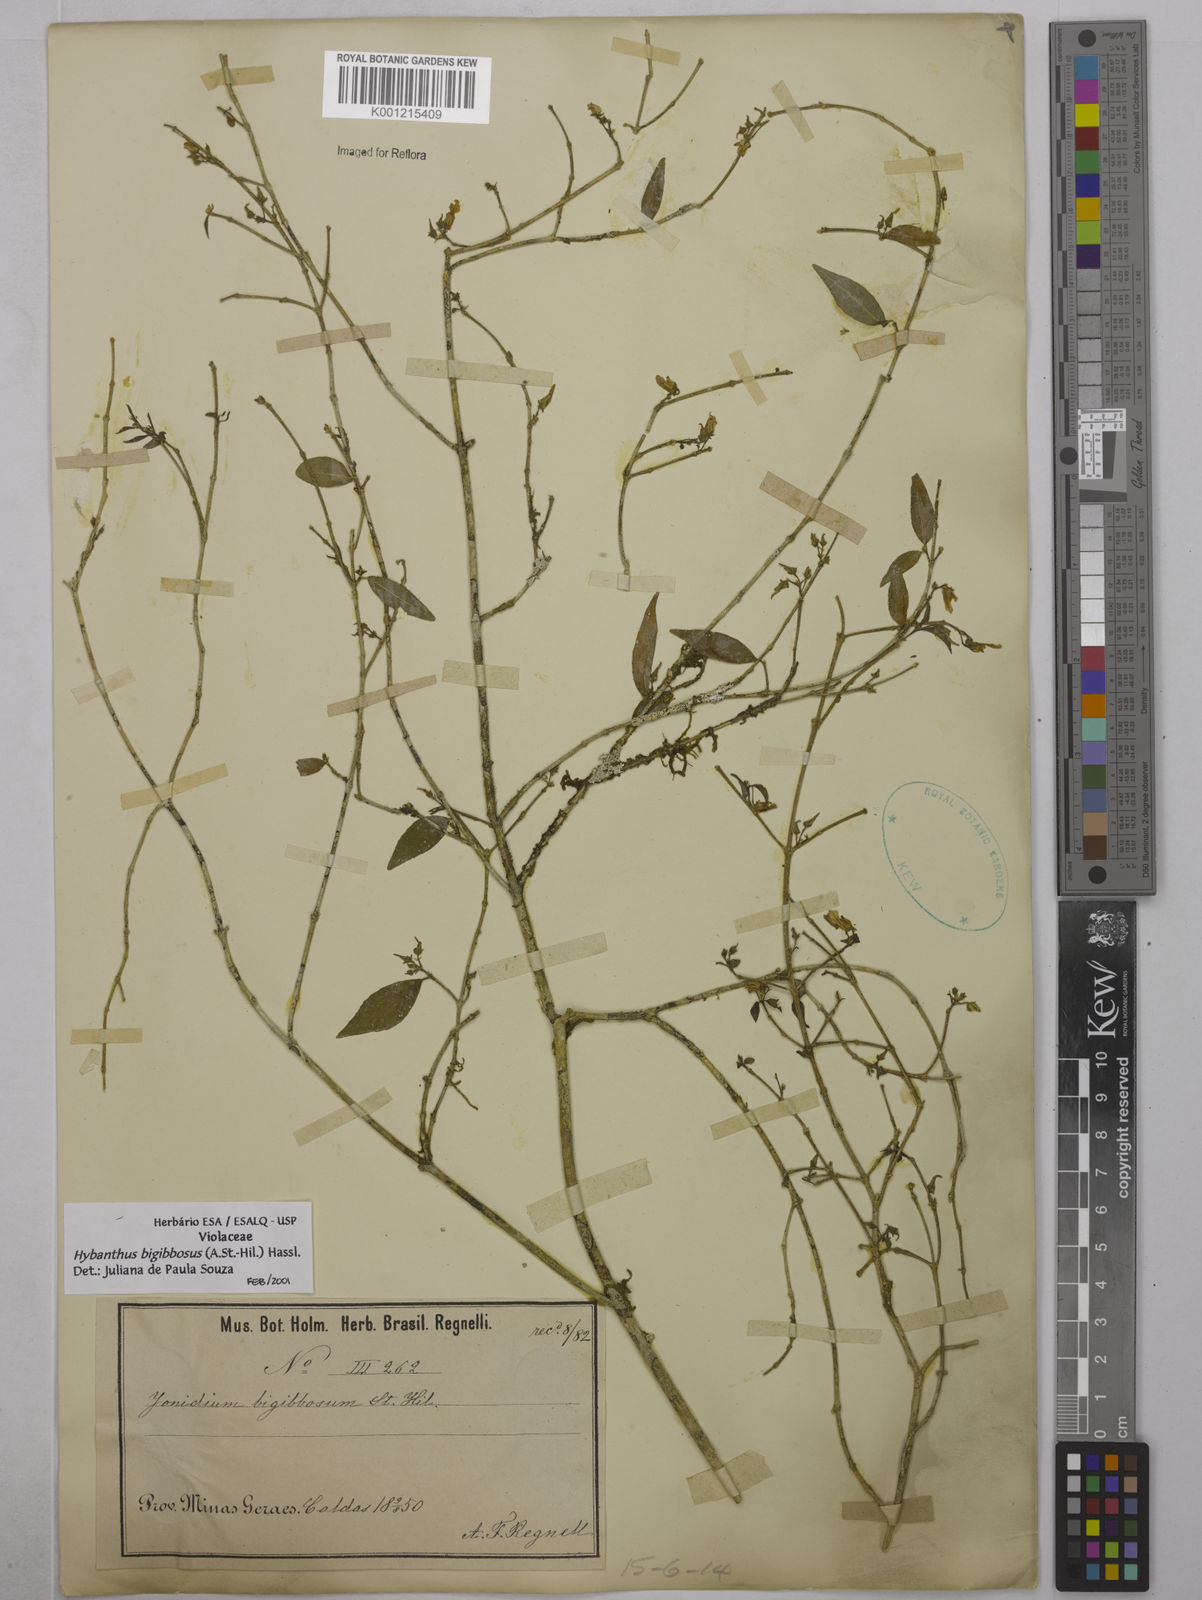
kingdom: Plantae
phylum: Tracheophyta
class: Magnoliopsida
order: Malpighiales
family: Violaceae
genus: Pombalia
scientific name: Pombalia bigibbosa
